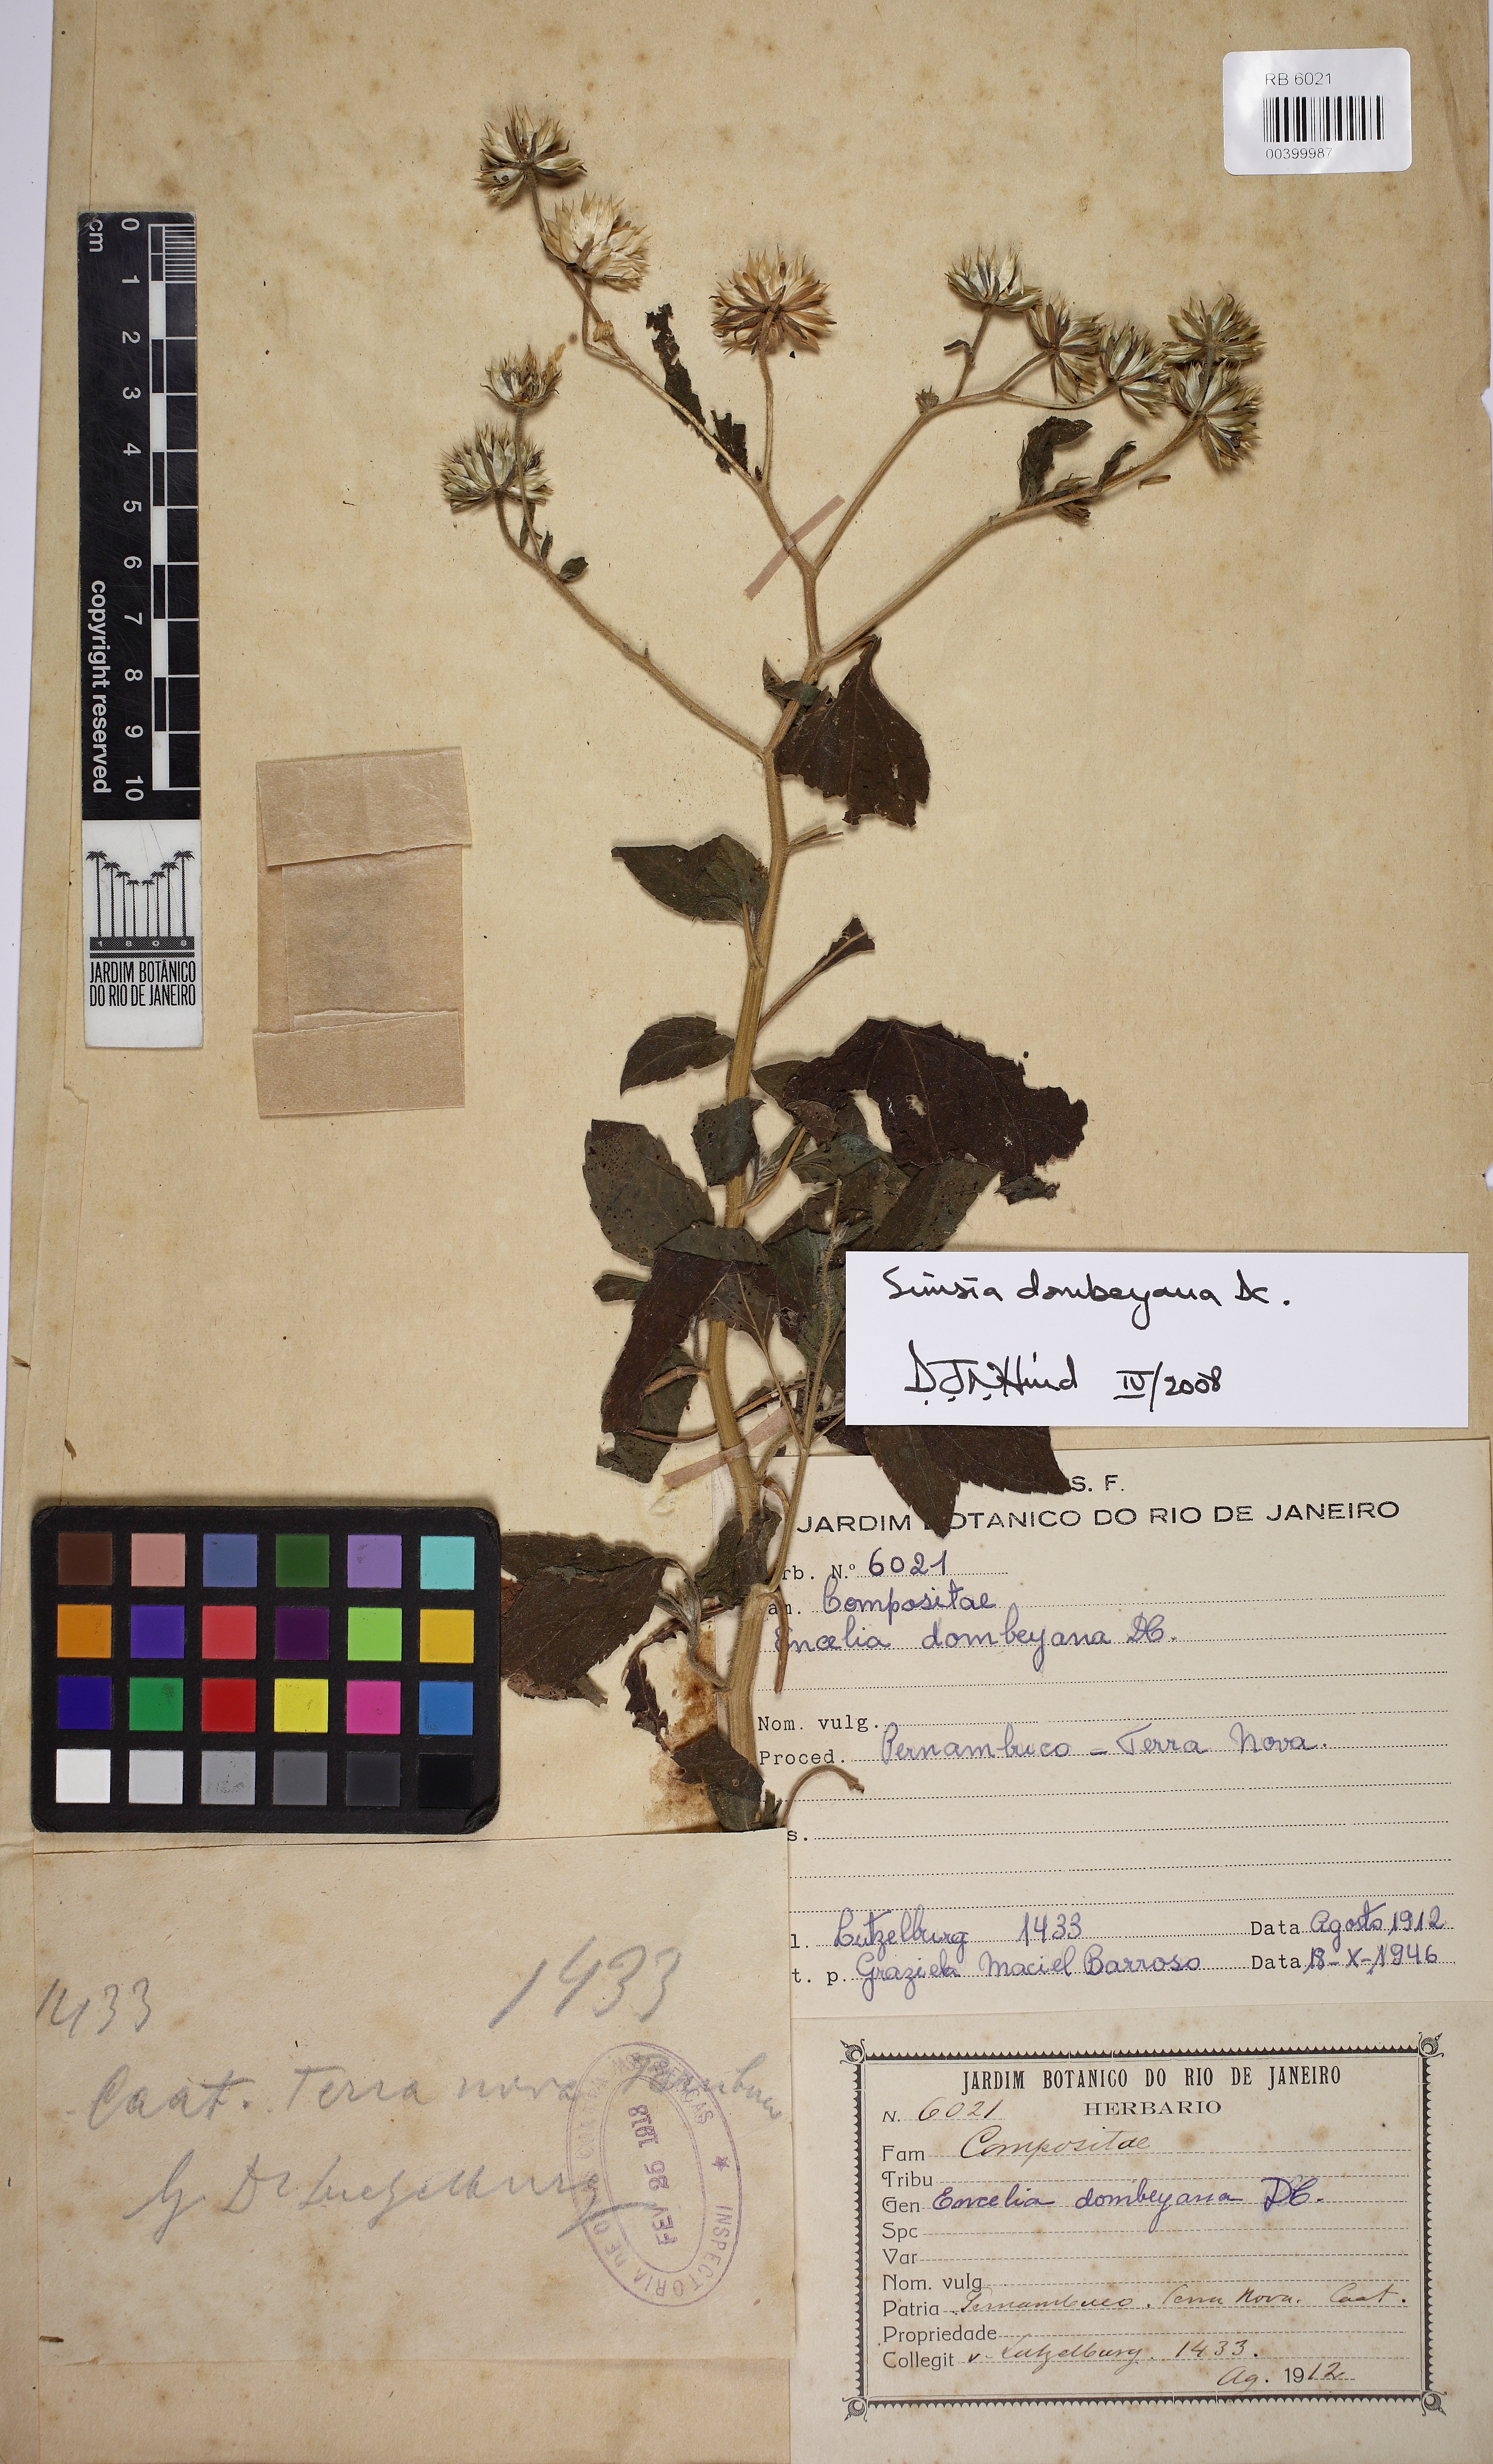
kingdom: Plantae
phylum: Tracheophyta
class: Magnoliopsida
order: Asterales
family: Asteraceae
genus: Simsia
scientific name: Simsia dombeyana
